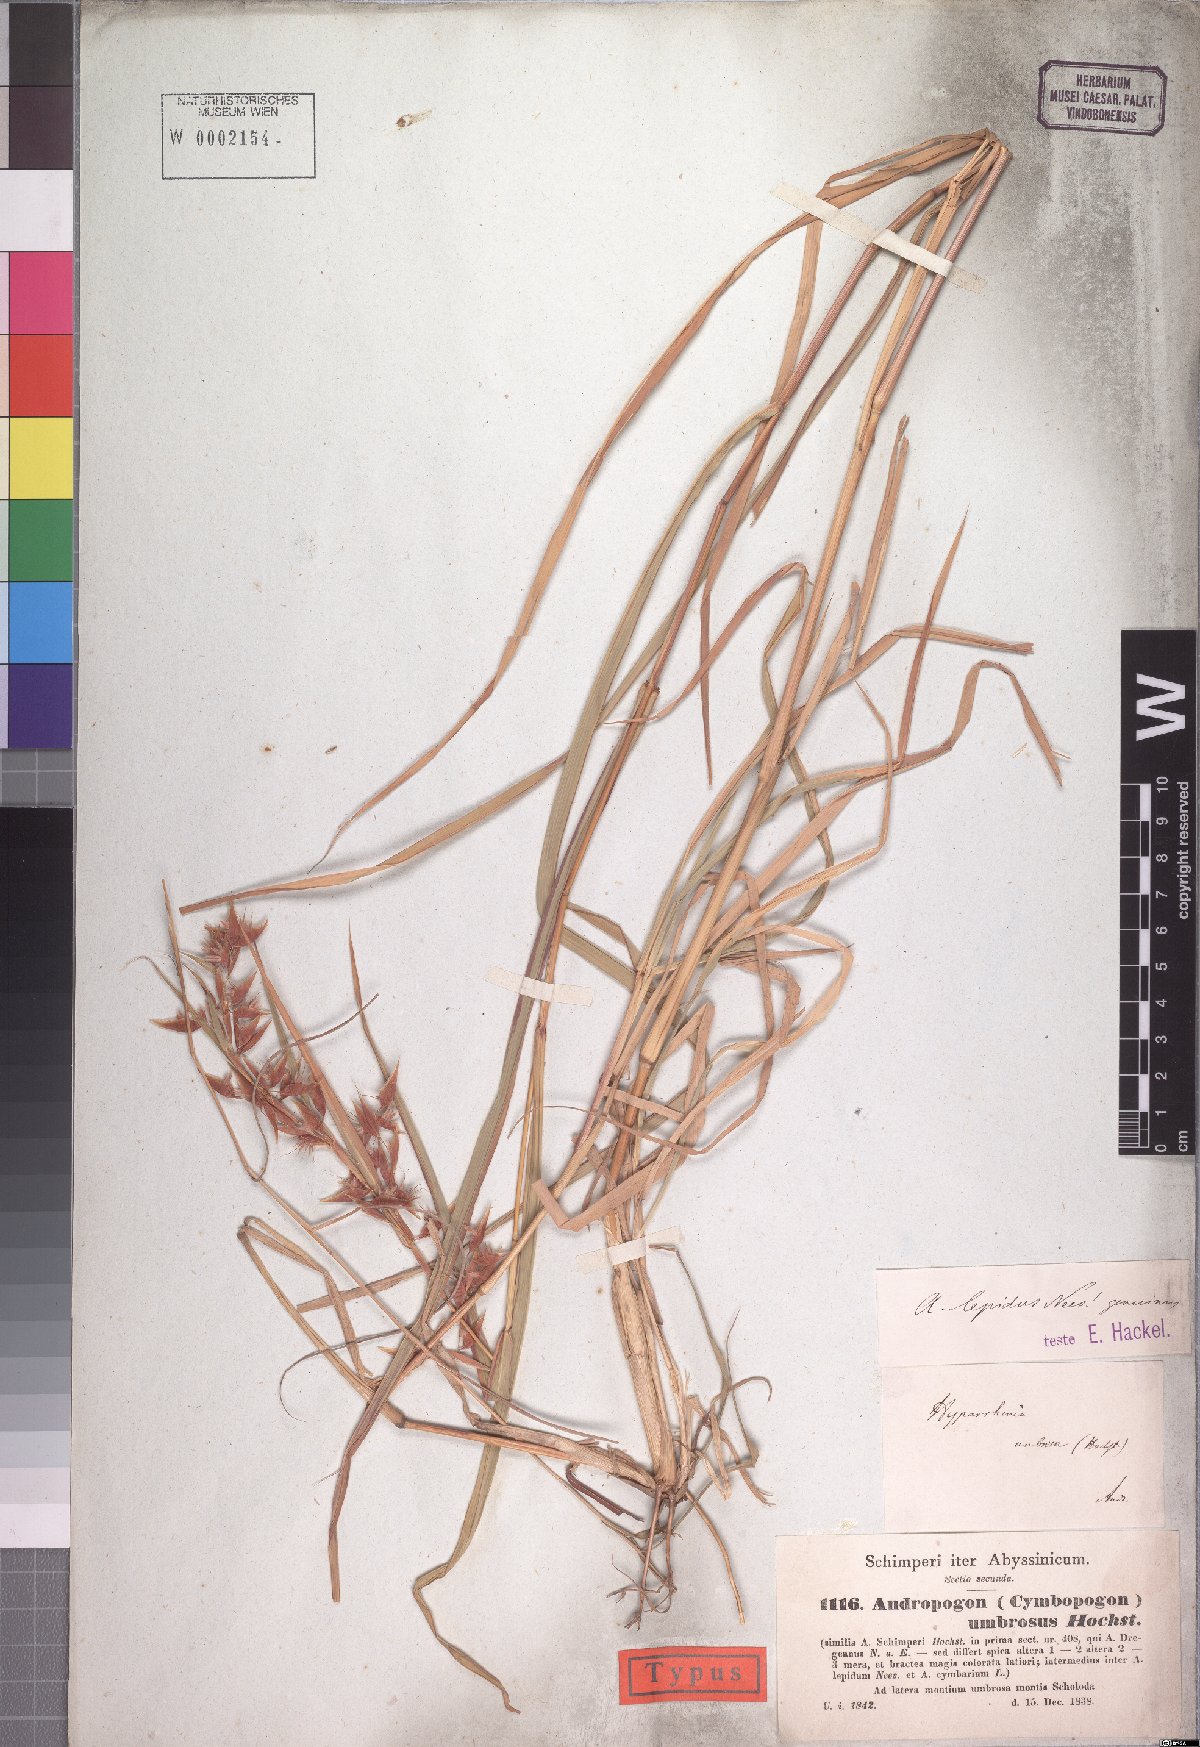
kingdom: Plantae
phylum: Tracheophyta
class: Liliopsida
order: Poales
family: Poaceae
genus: Hyparrhenia
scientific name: Hyparrhenia umbrosa
